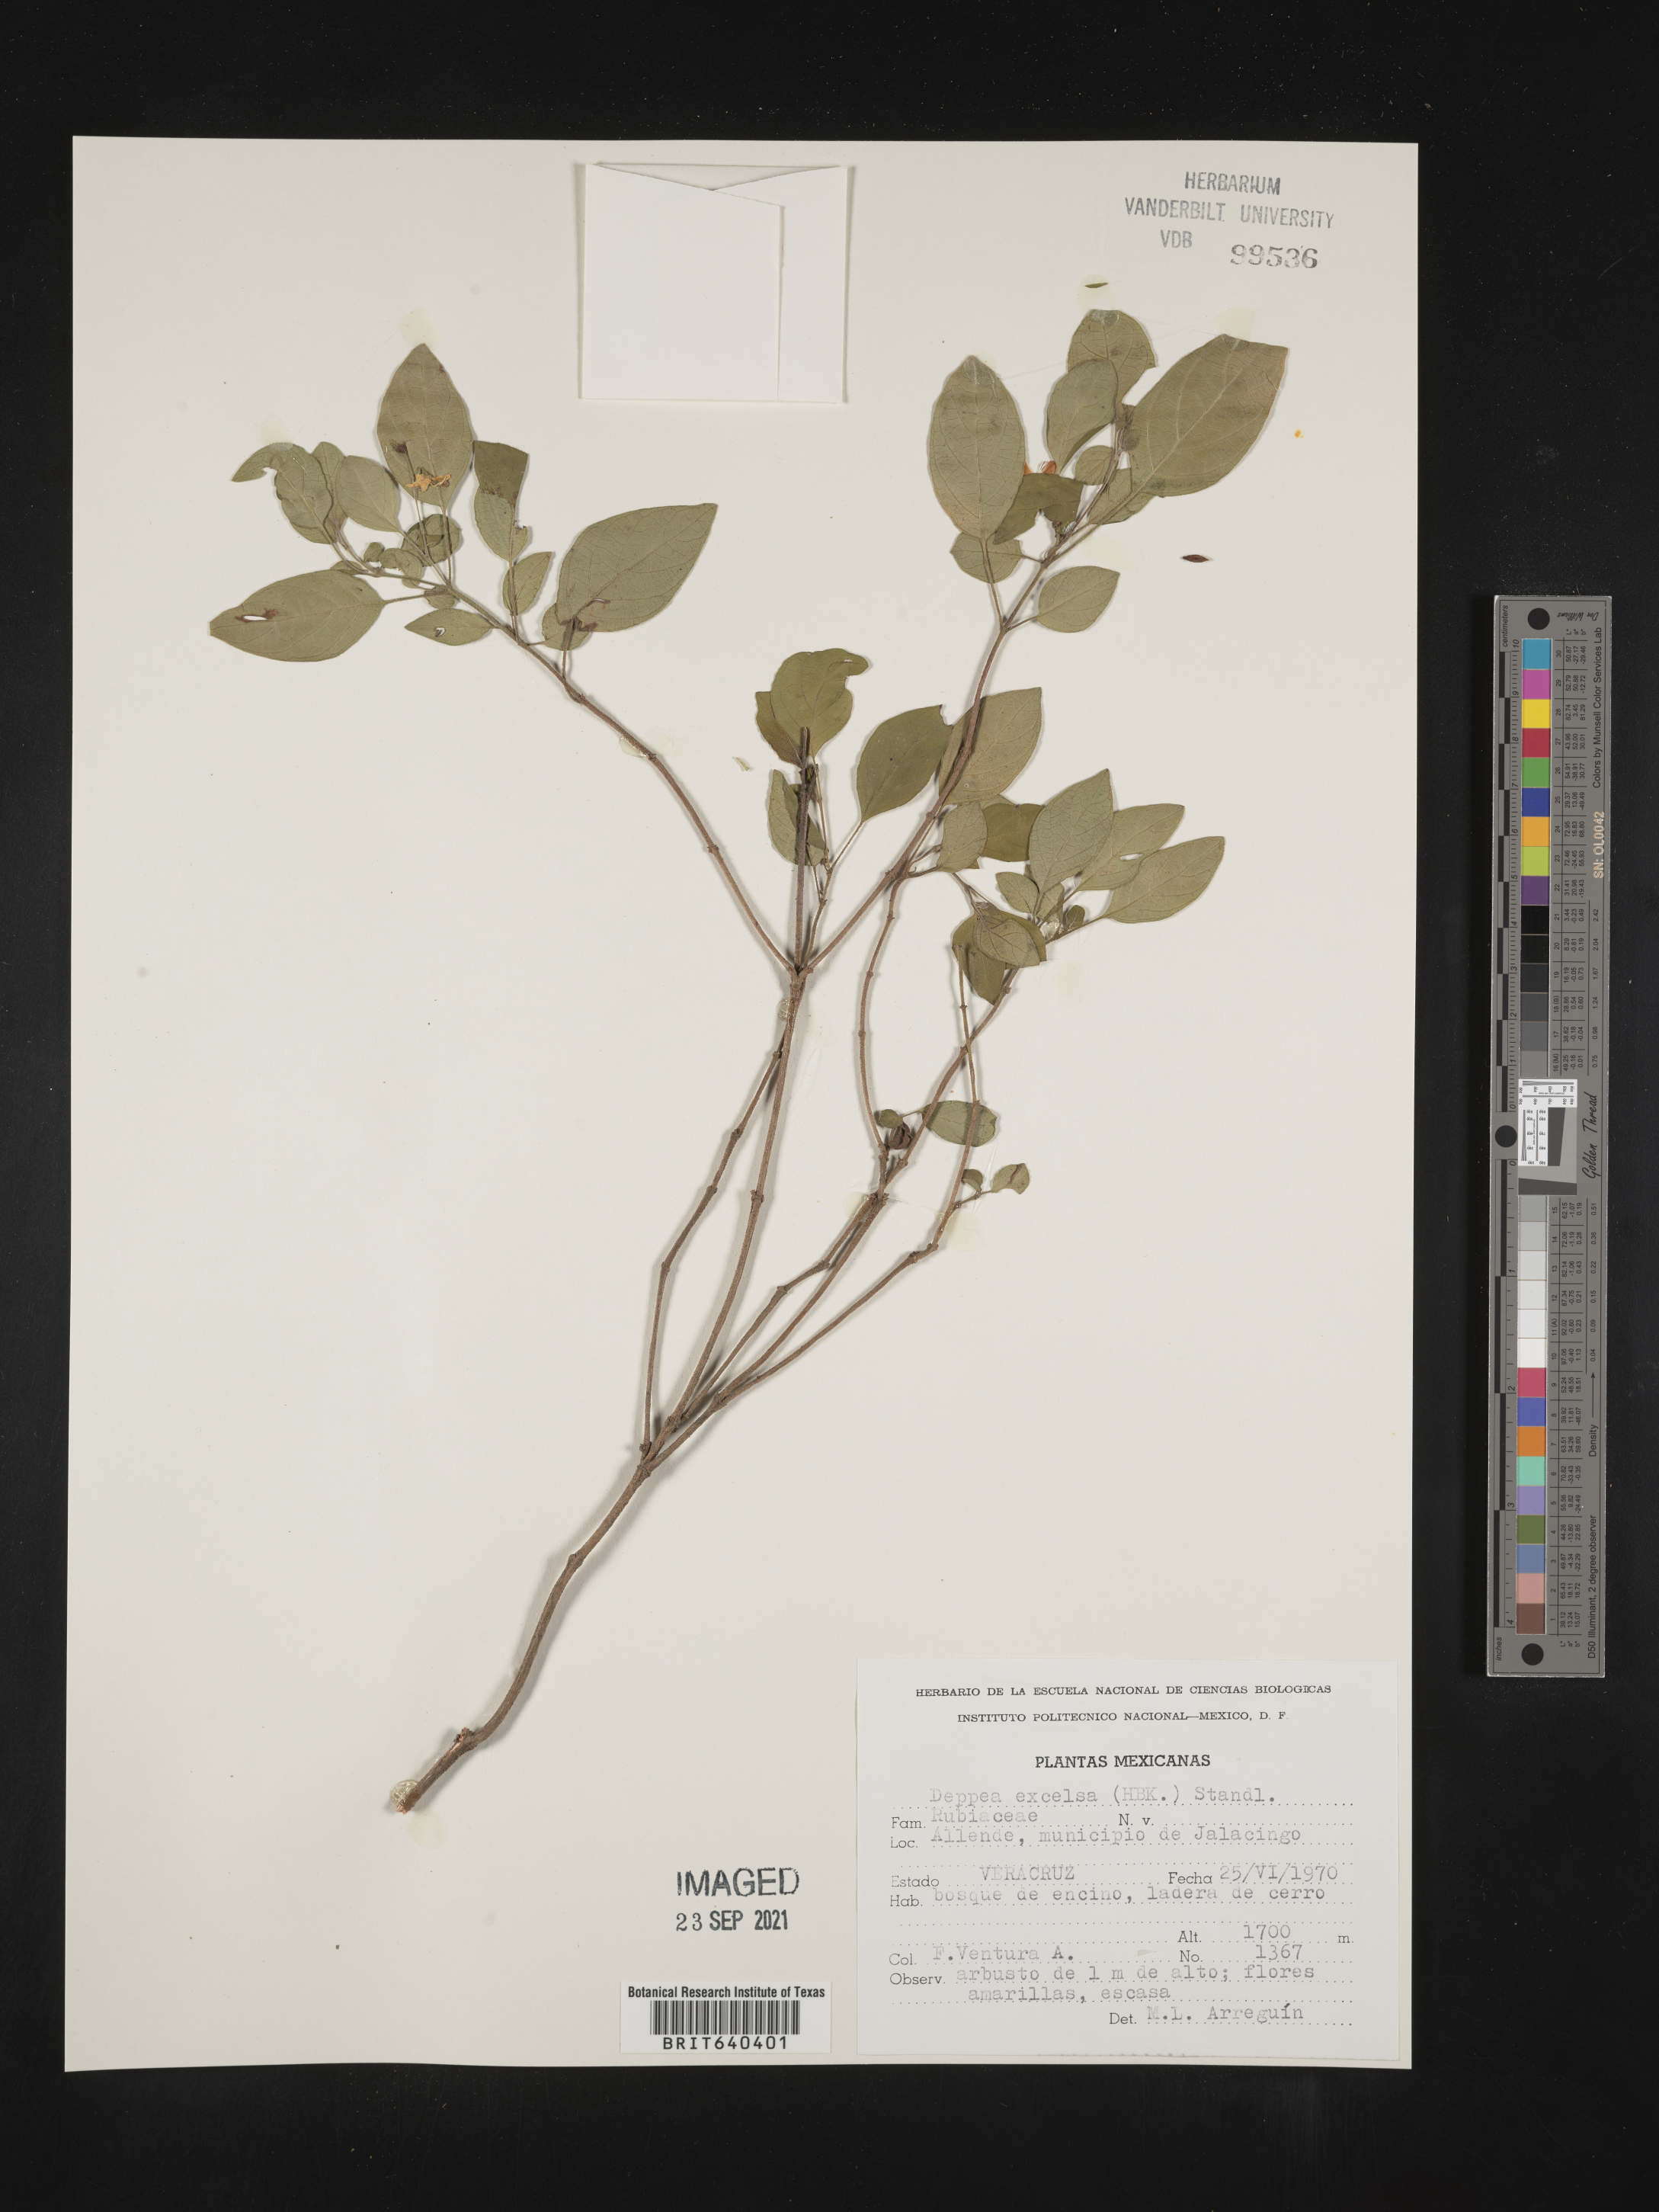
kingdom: Plantae
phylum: Tracheophyta
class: Magnoliopsida
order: Gentianales
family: Rubiaceae
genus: Deppea
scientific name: Deppea
